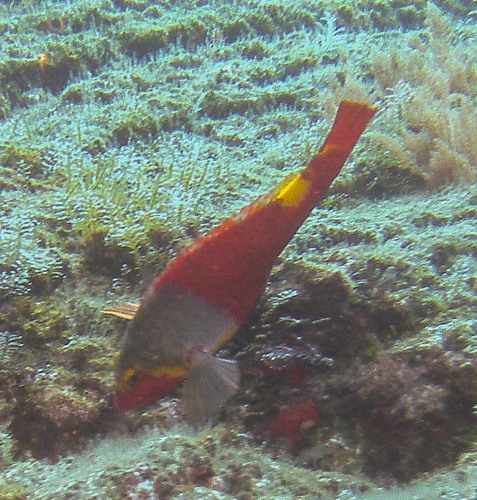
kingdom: Animalia
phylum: Chordata
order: Perciformes
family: Scaridae
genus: Sparisoma
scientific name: Sparisoma cretense
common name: Parrotfish
